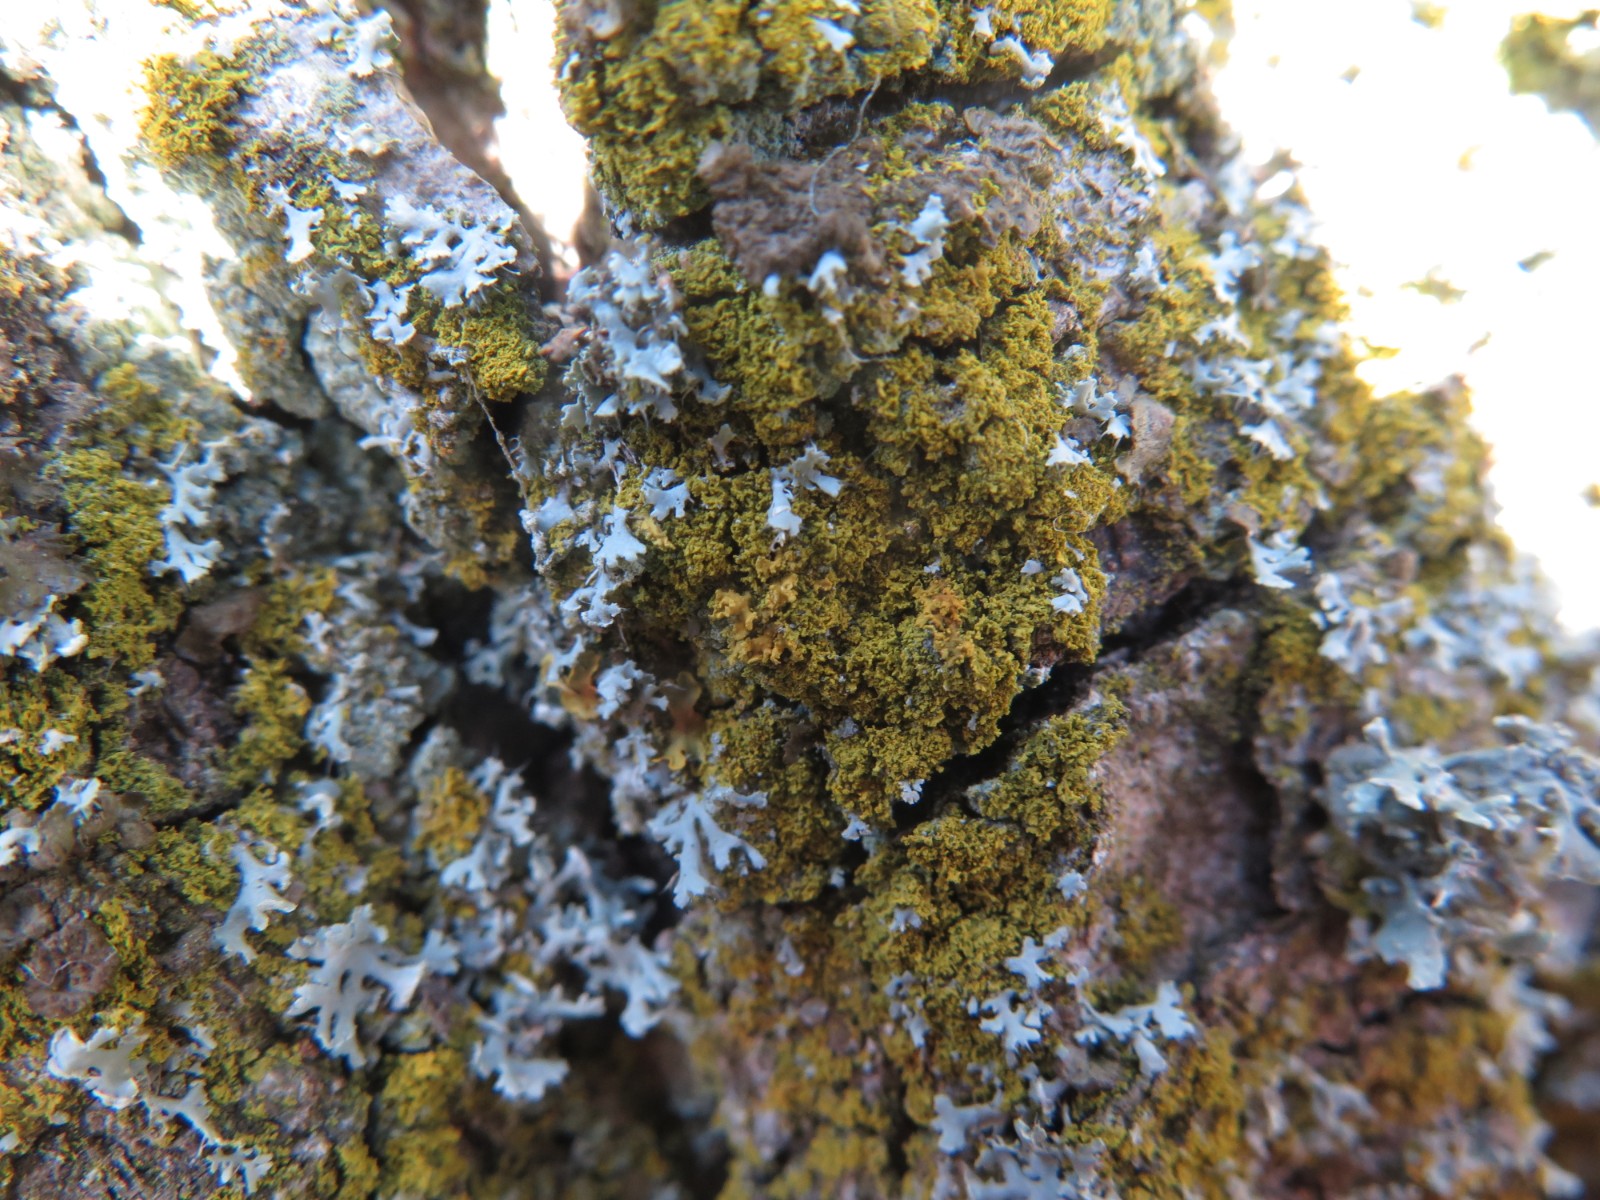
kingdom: Fungi
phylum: Ascomycota
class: Candelariomycetes
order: Candelariales
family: Candelariaceae
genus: Candelaria
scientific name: Candelaria
